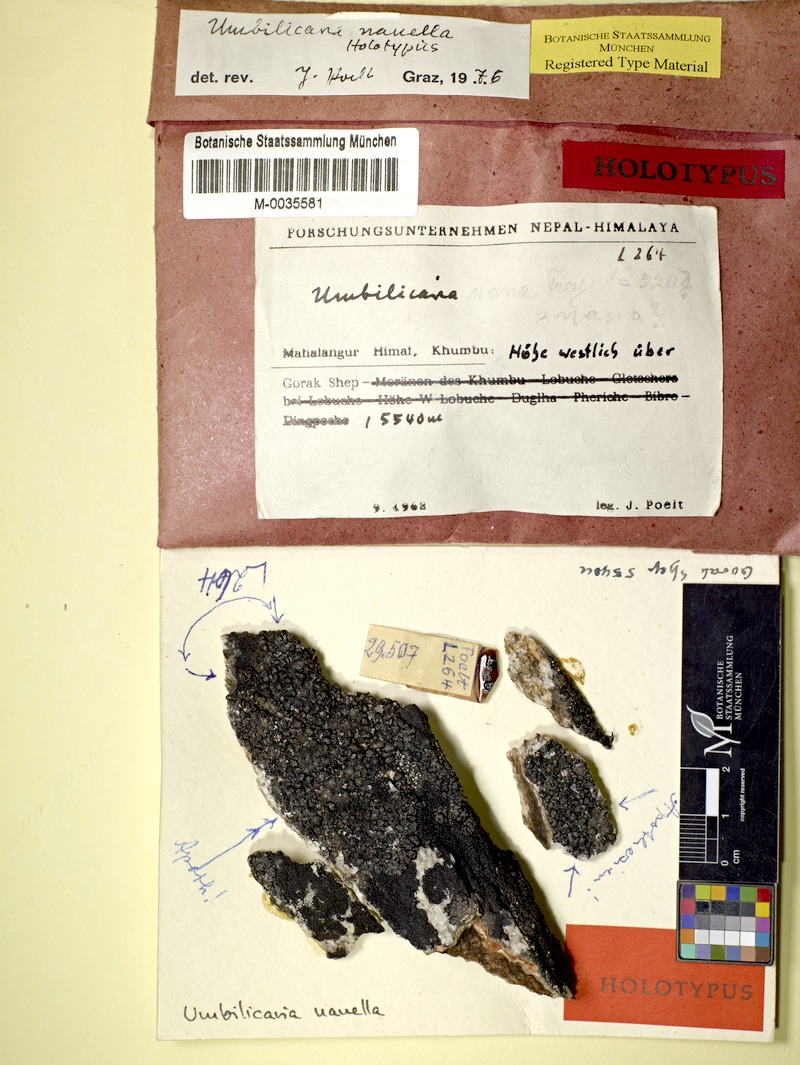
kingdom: Fungi
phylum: Ascomycota
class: Lecanoromycetes
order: Umbilicariales
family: Umbilicariaceae
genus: Umbilicaria
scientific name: Umbilicaria
